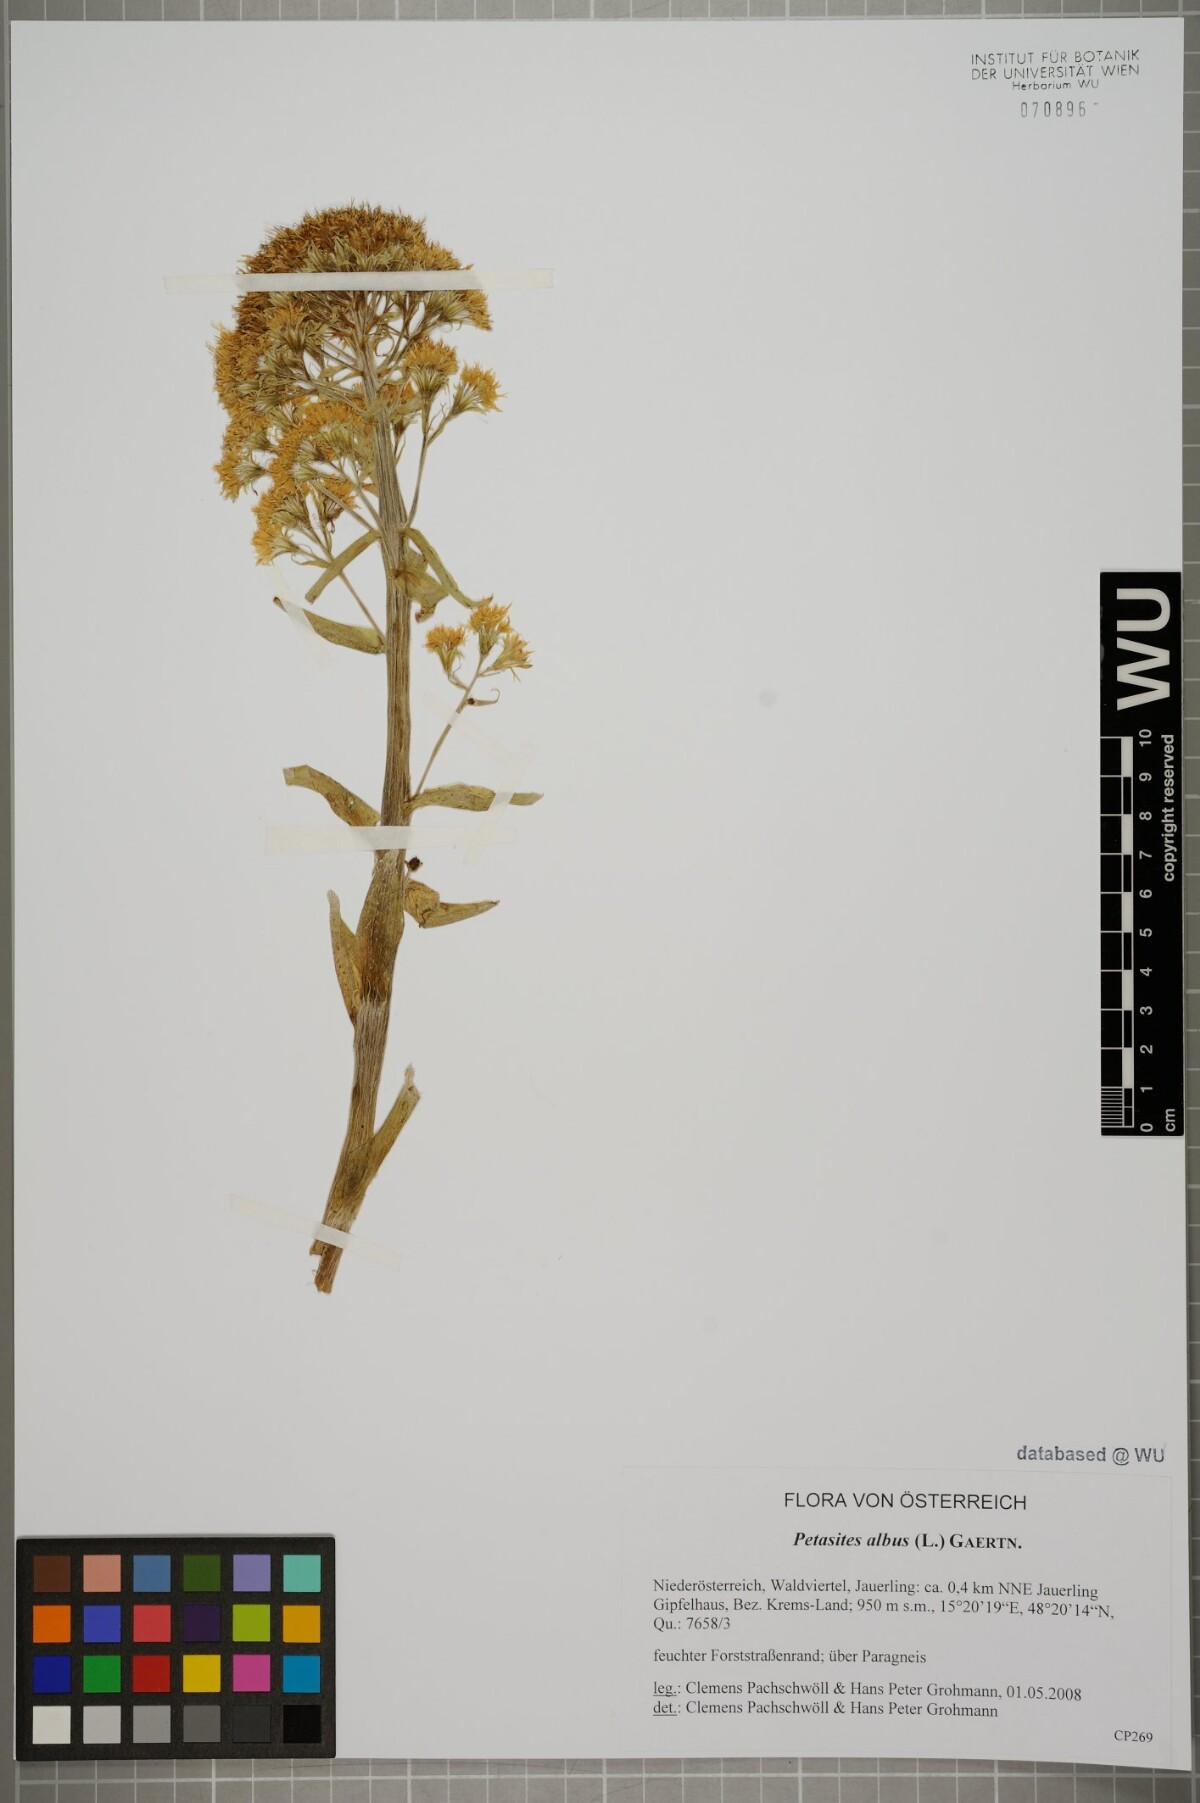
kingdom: Plantae
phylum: Tracheophyta
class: Magnoliopsida
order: Asterales
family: Asteraceae
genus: Petasites
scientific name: Petasites albus
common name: White butterbur
